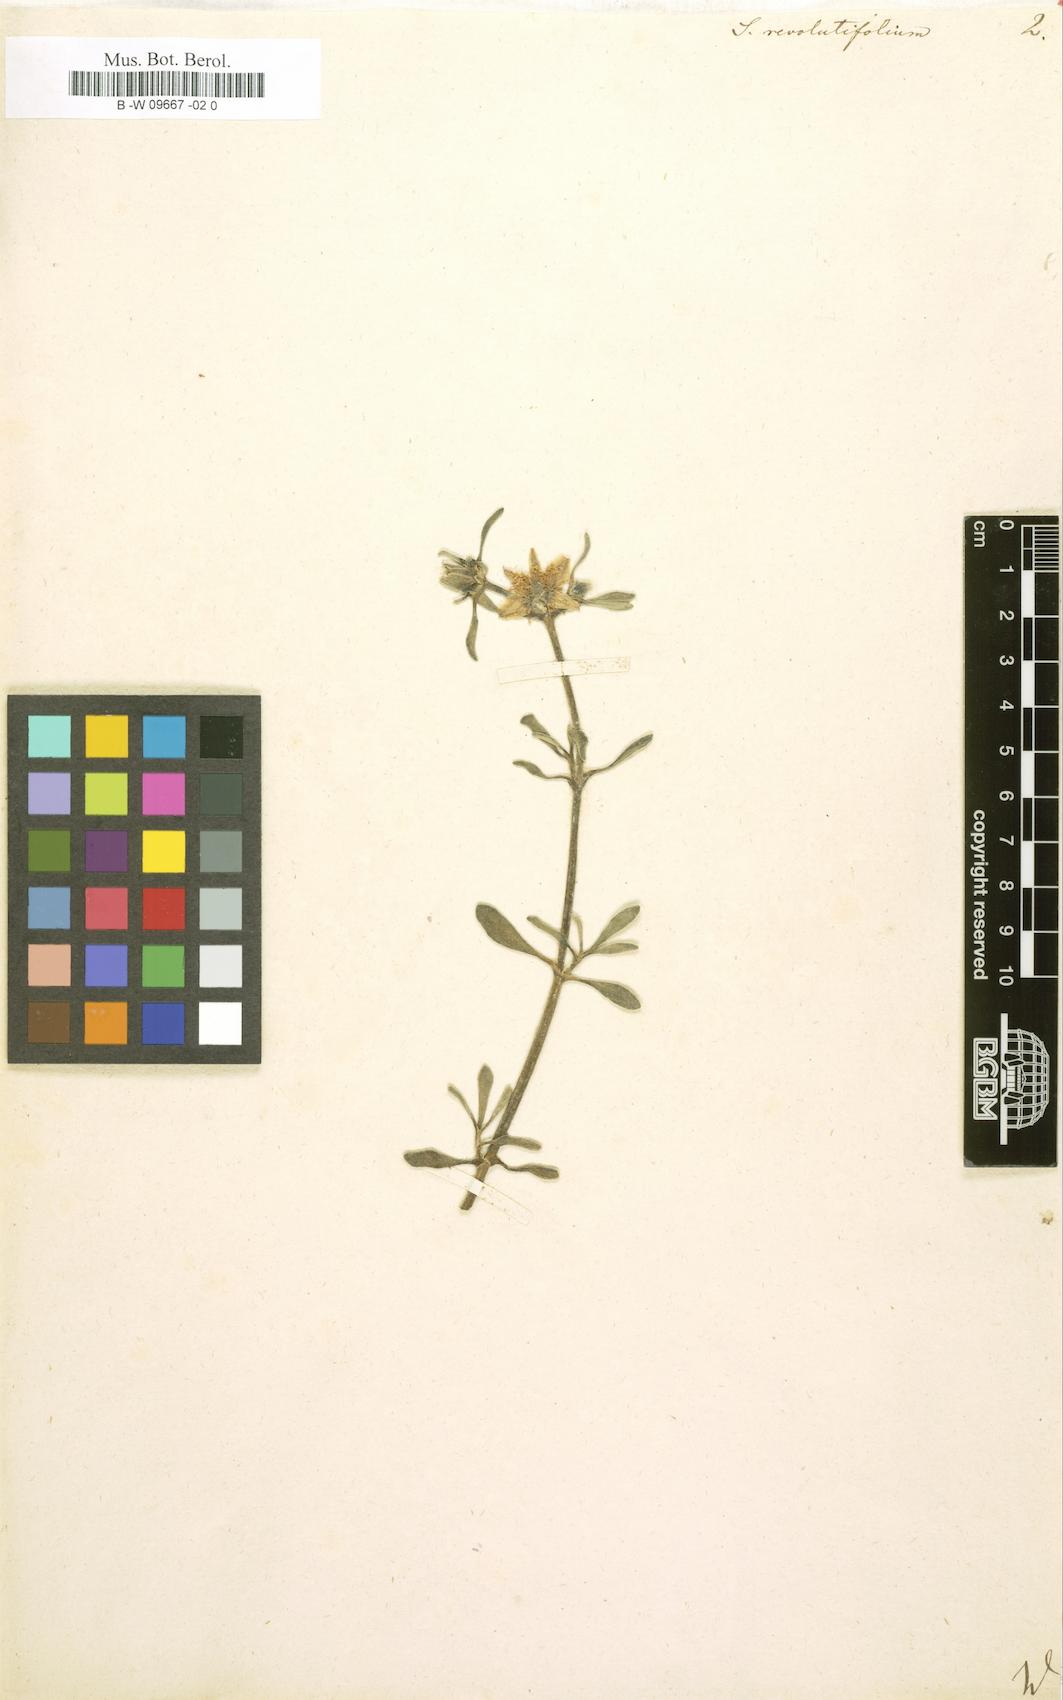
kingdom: Plantae
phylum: Tracheophyta
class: Magnoliopsida
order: Caryophyllales
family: Aizoaceae
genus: Sesuvium
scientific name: Sesuvium revolutifolium
